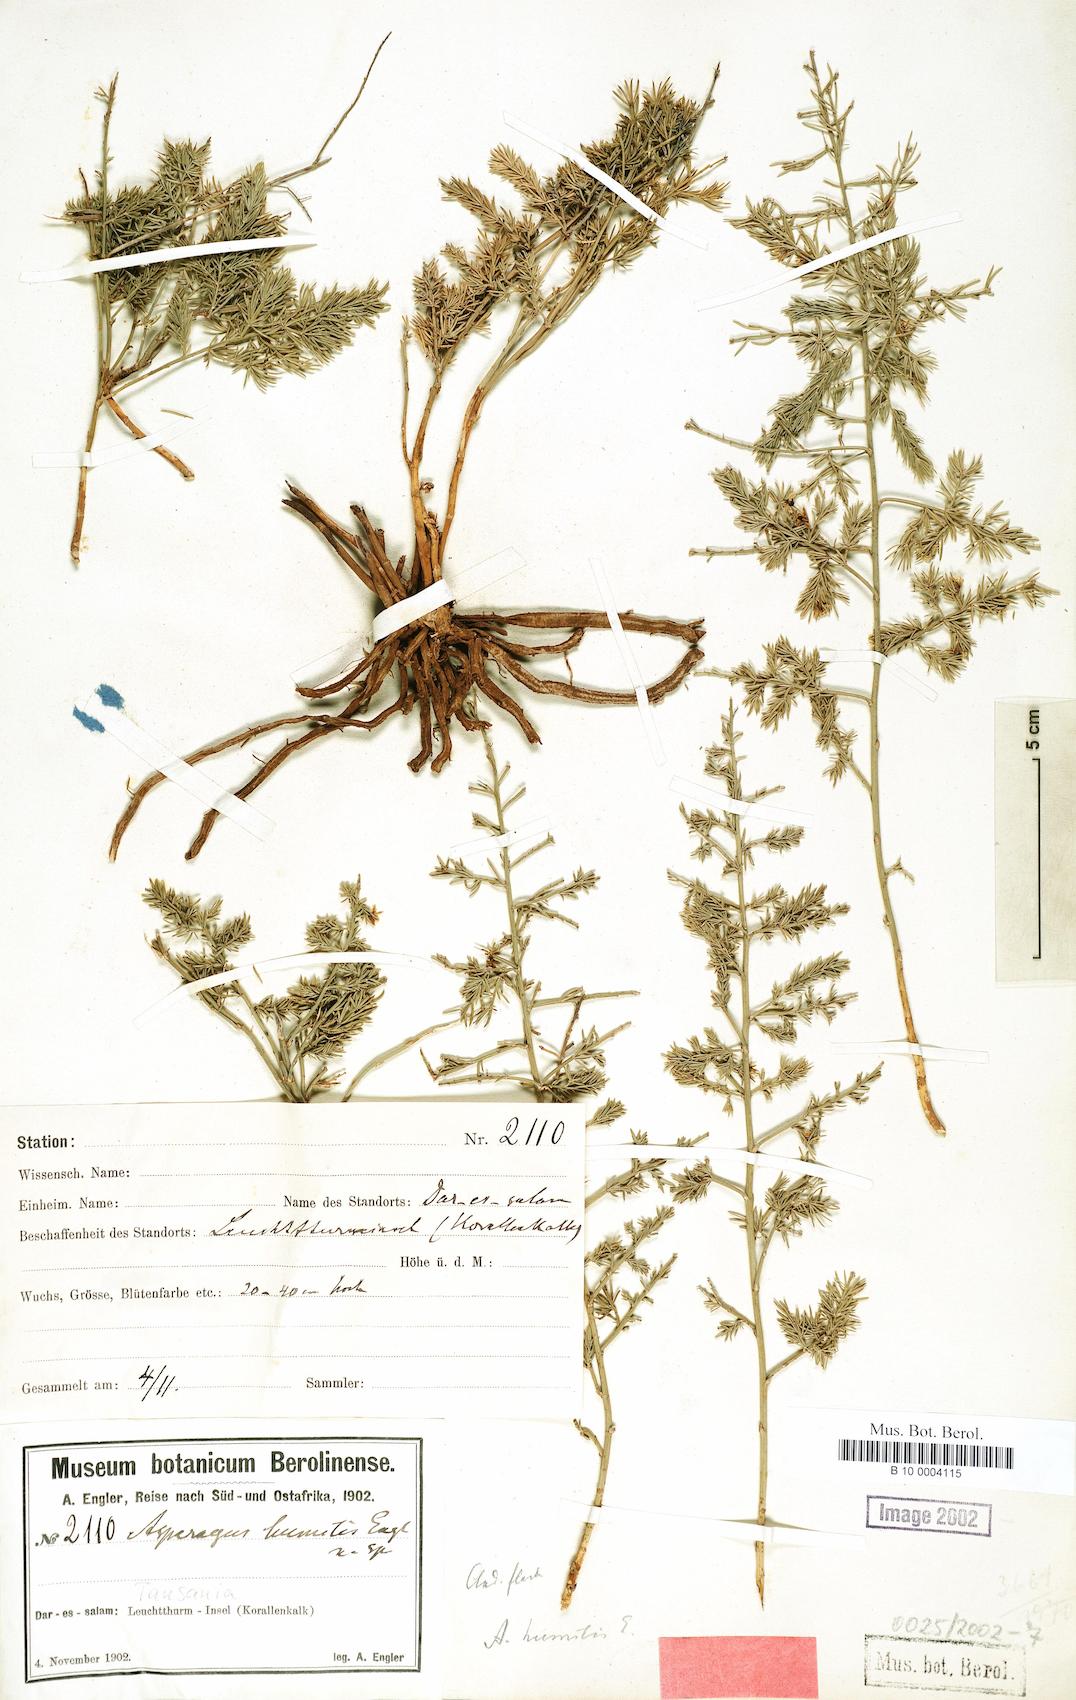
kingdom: Plantae
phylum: Tracheophyta
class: Liliopsida
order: Asparagales
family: Asparagaceae
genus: Asparagus
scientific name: Asparagus humilis
